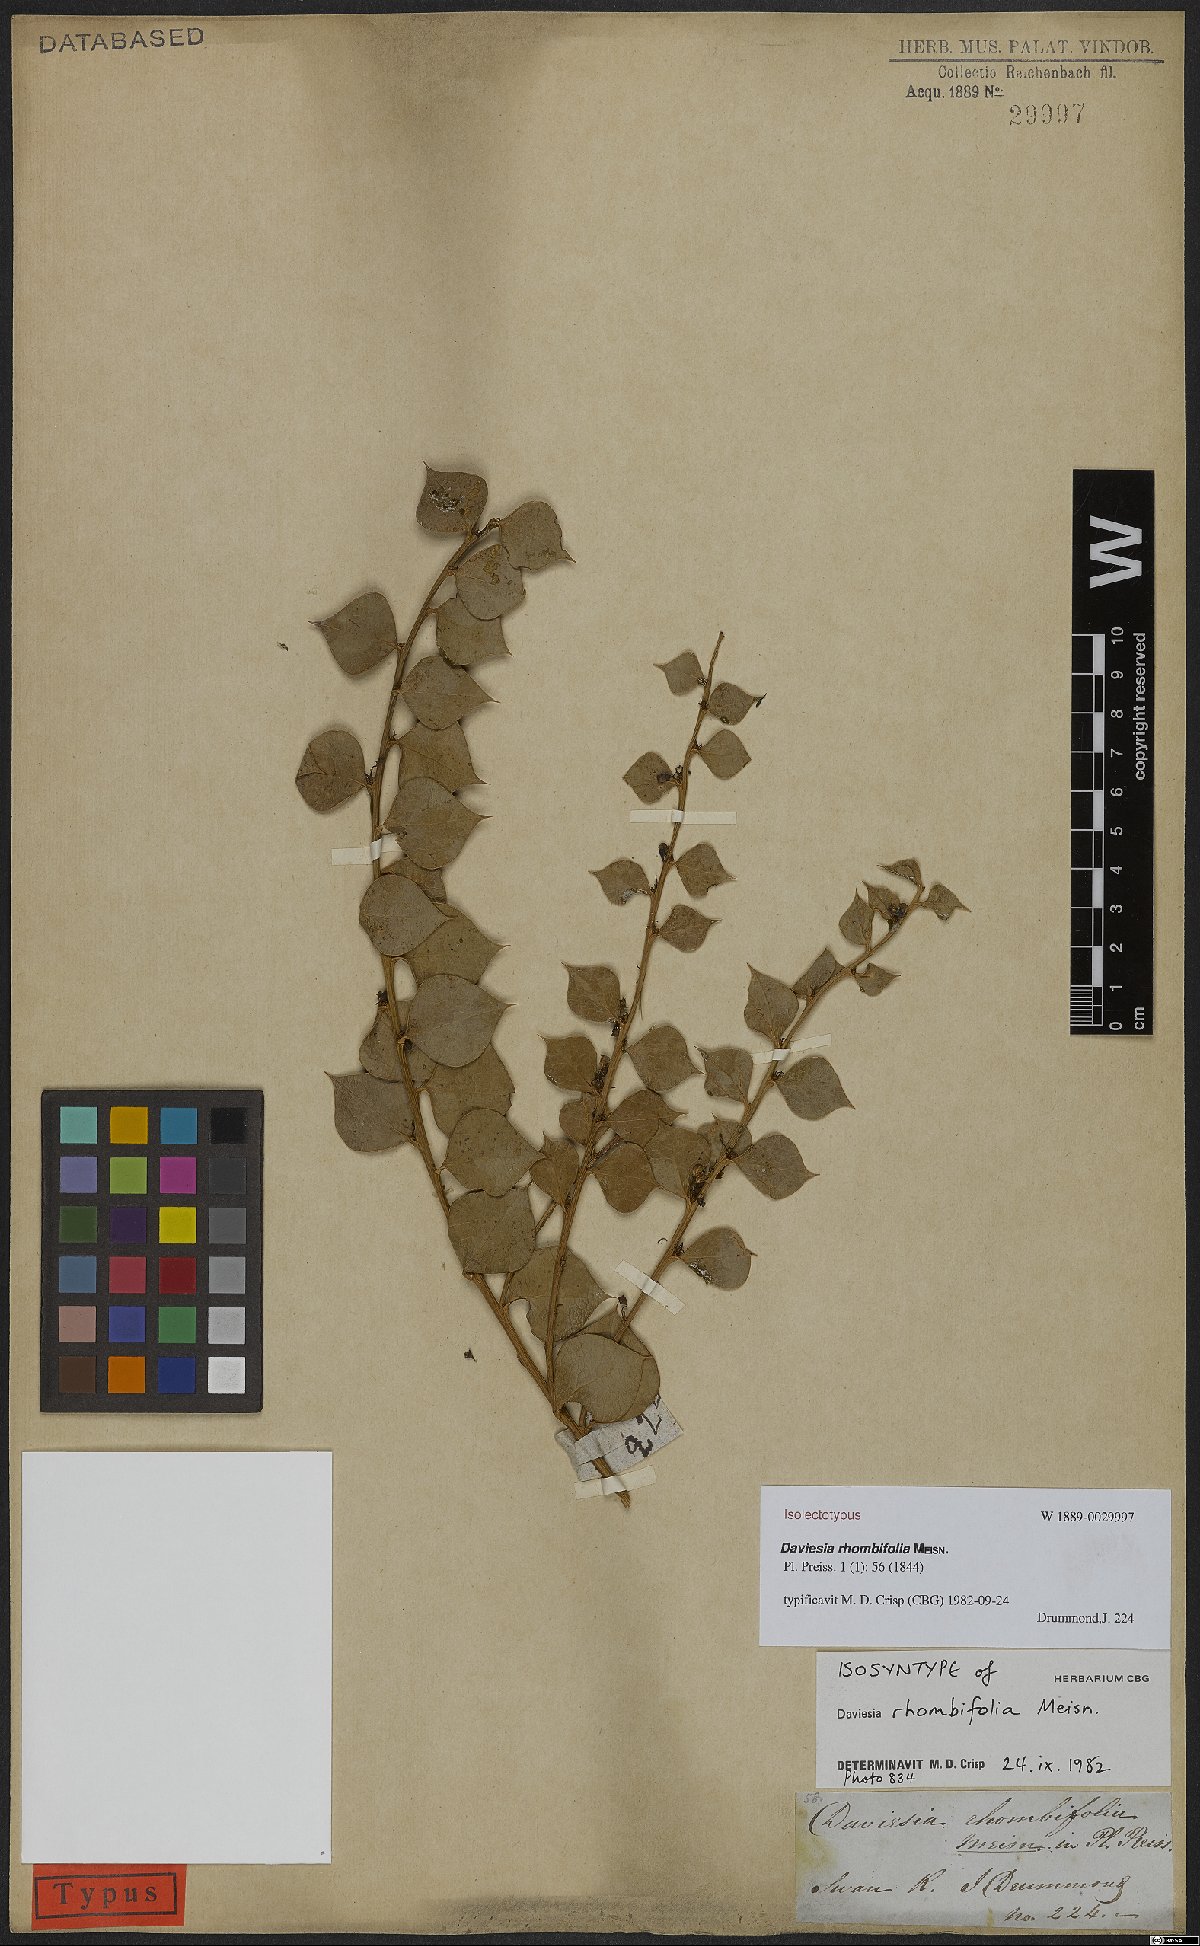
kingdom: Plantae
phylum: Tracheophyta
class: Magnoliopsida
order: Fabales
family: Fabaceae
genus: Daviesia
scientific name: Daviesia rhombifolia
